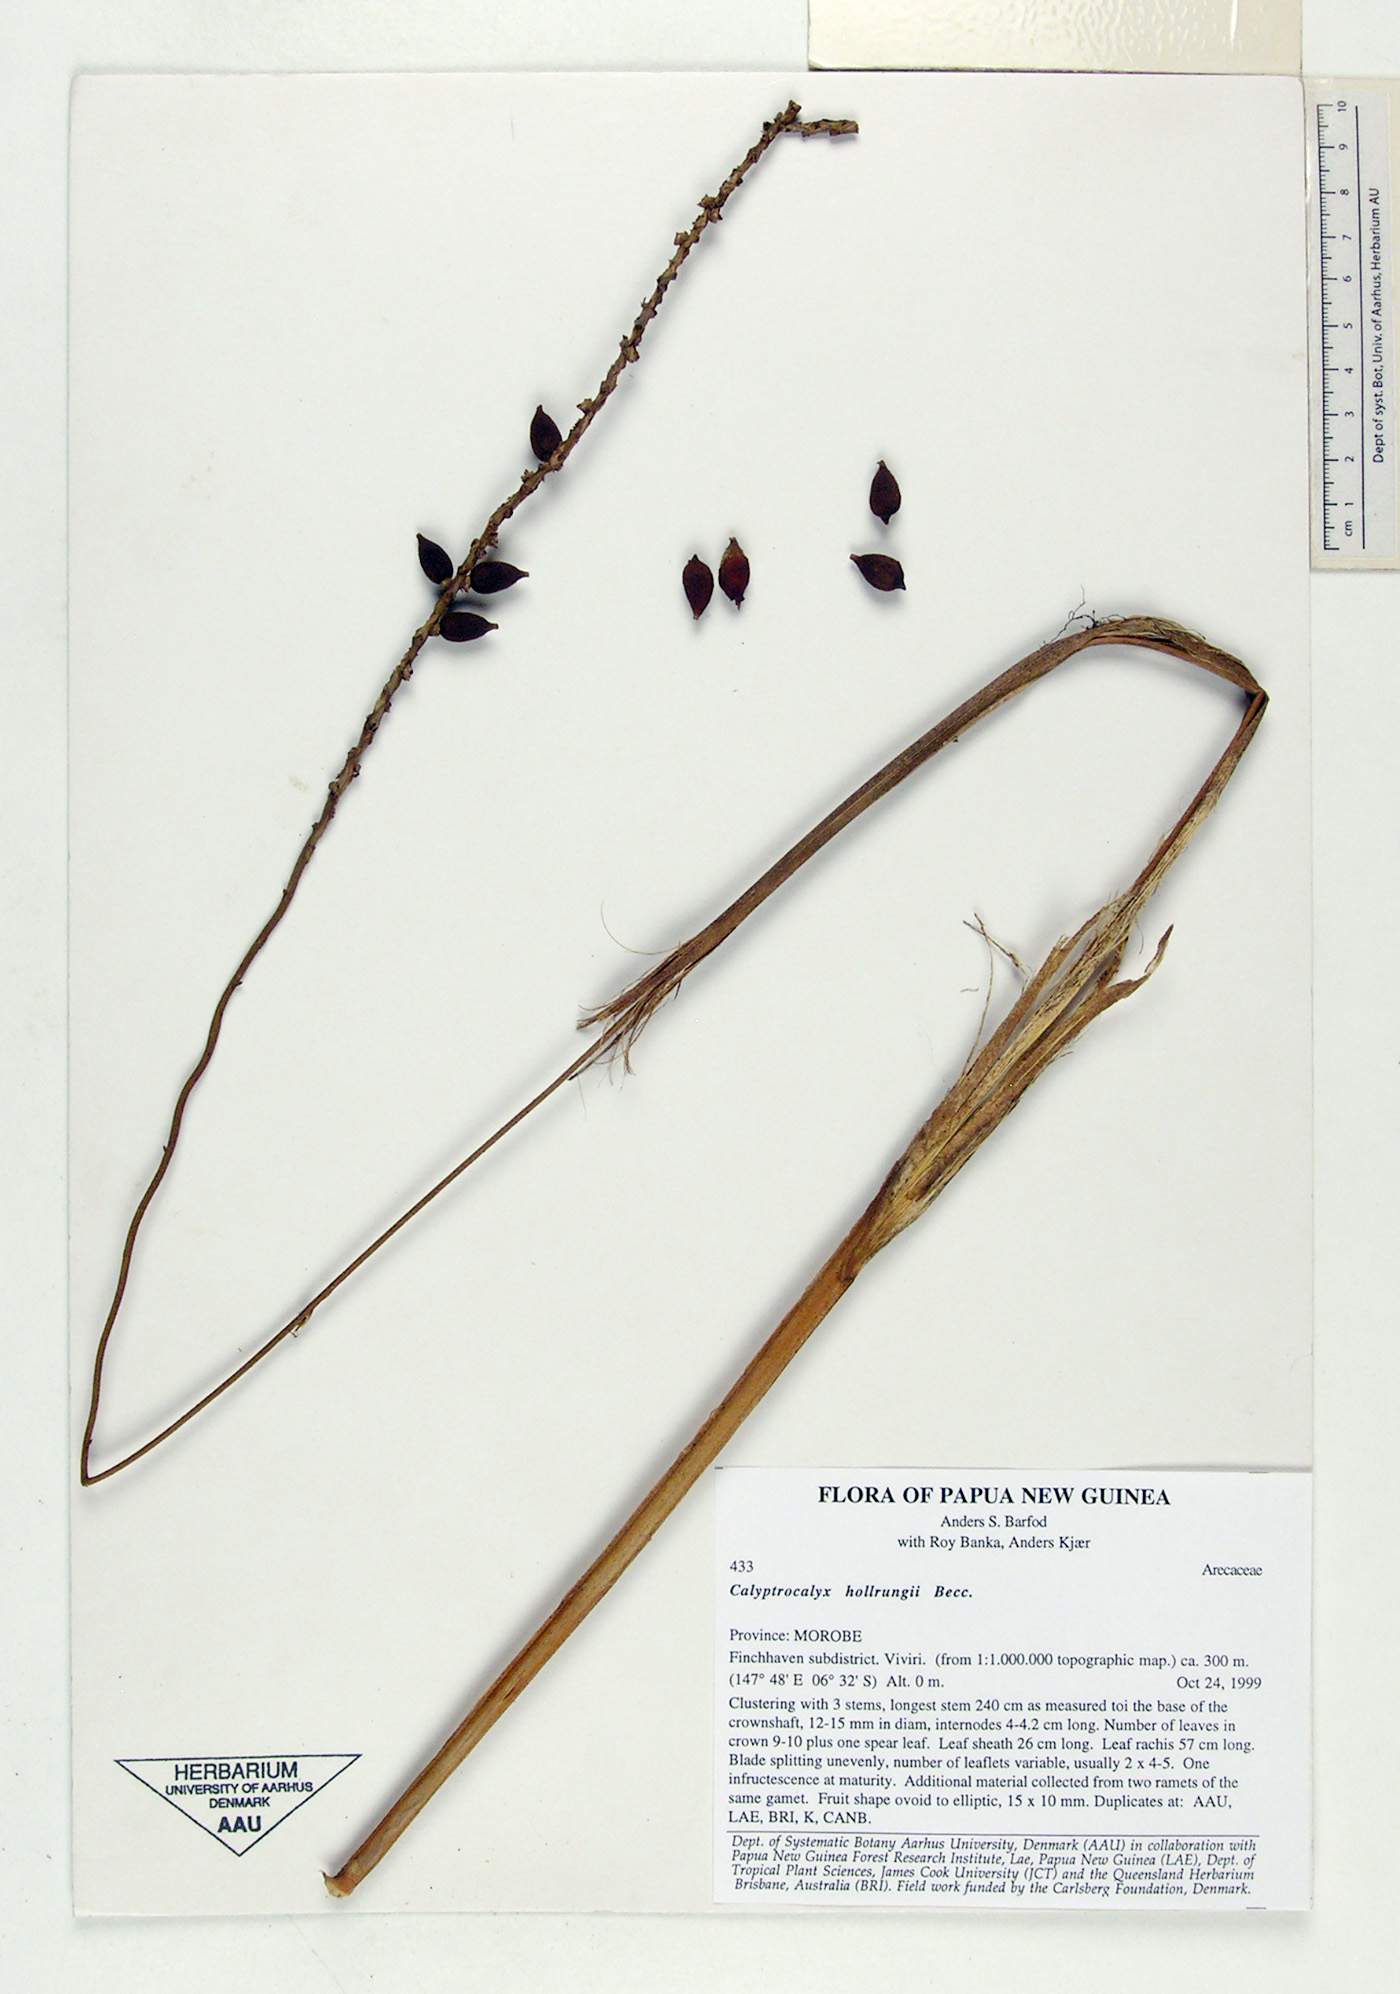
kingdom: Plantae
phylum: Tracheophyta
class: Liliopsida
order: Arecales
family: Arecaceae
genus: Calyptrocalyx
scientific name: Calyptrocalyx hollrungii
